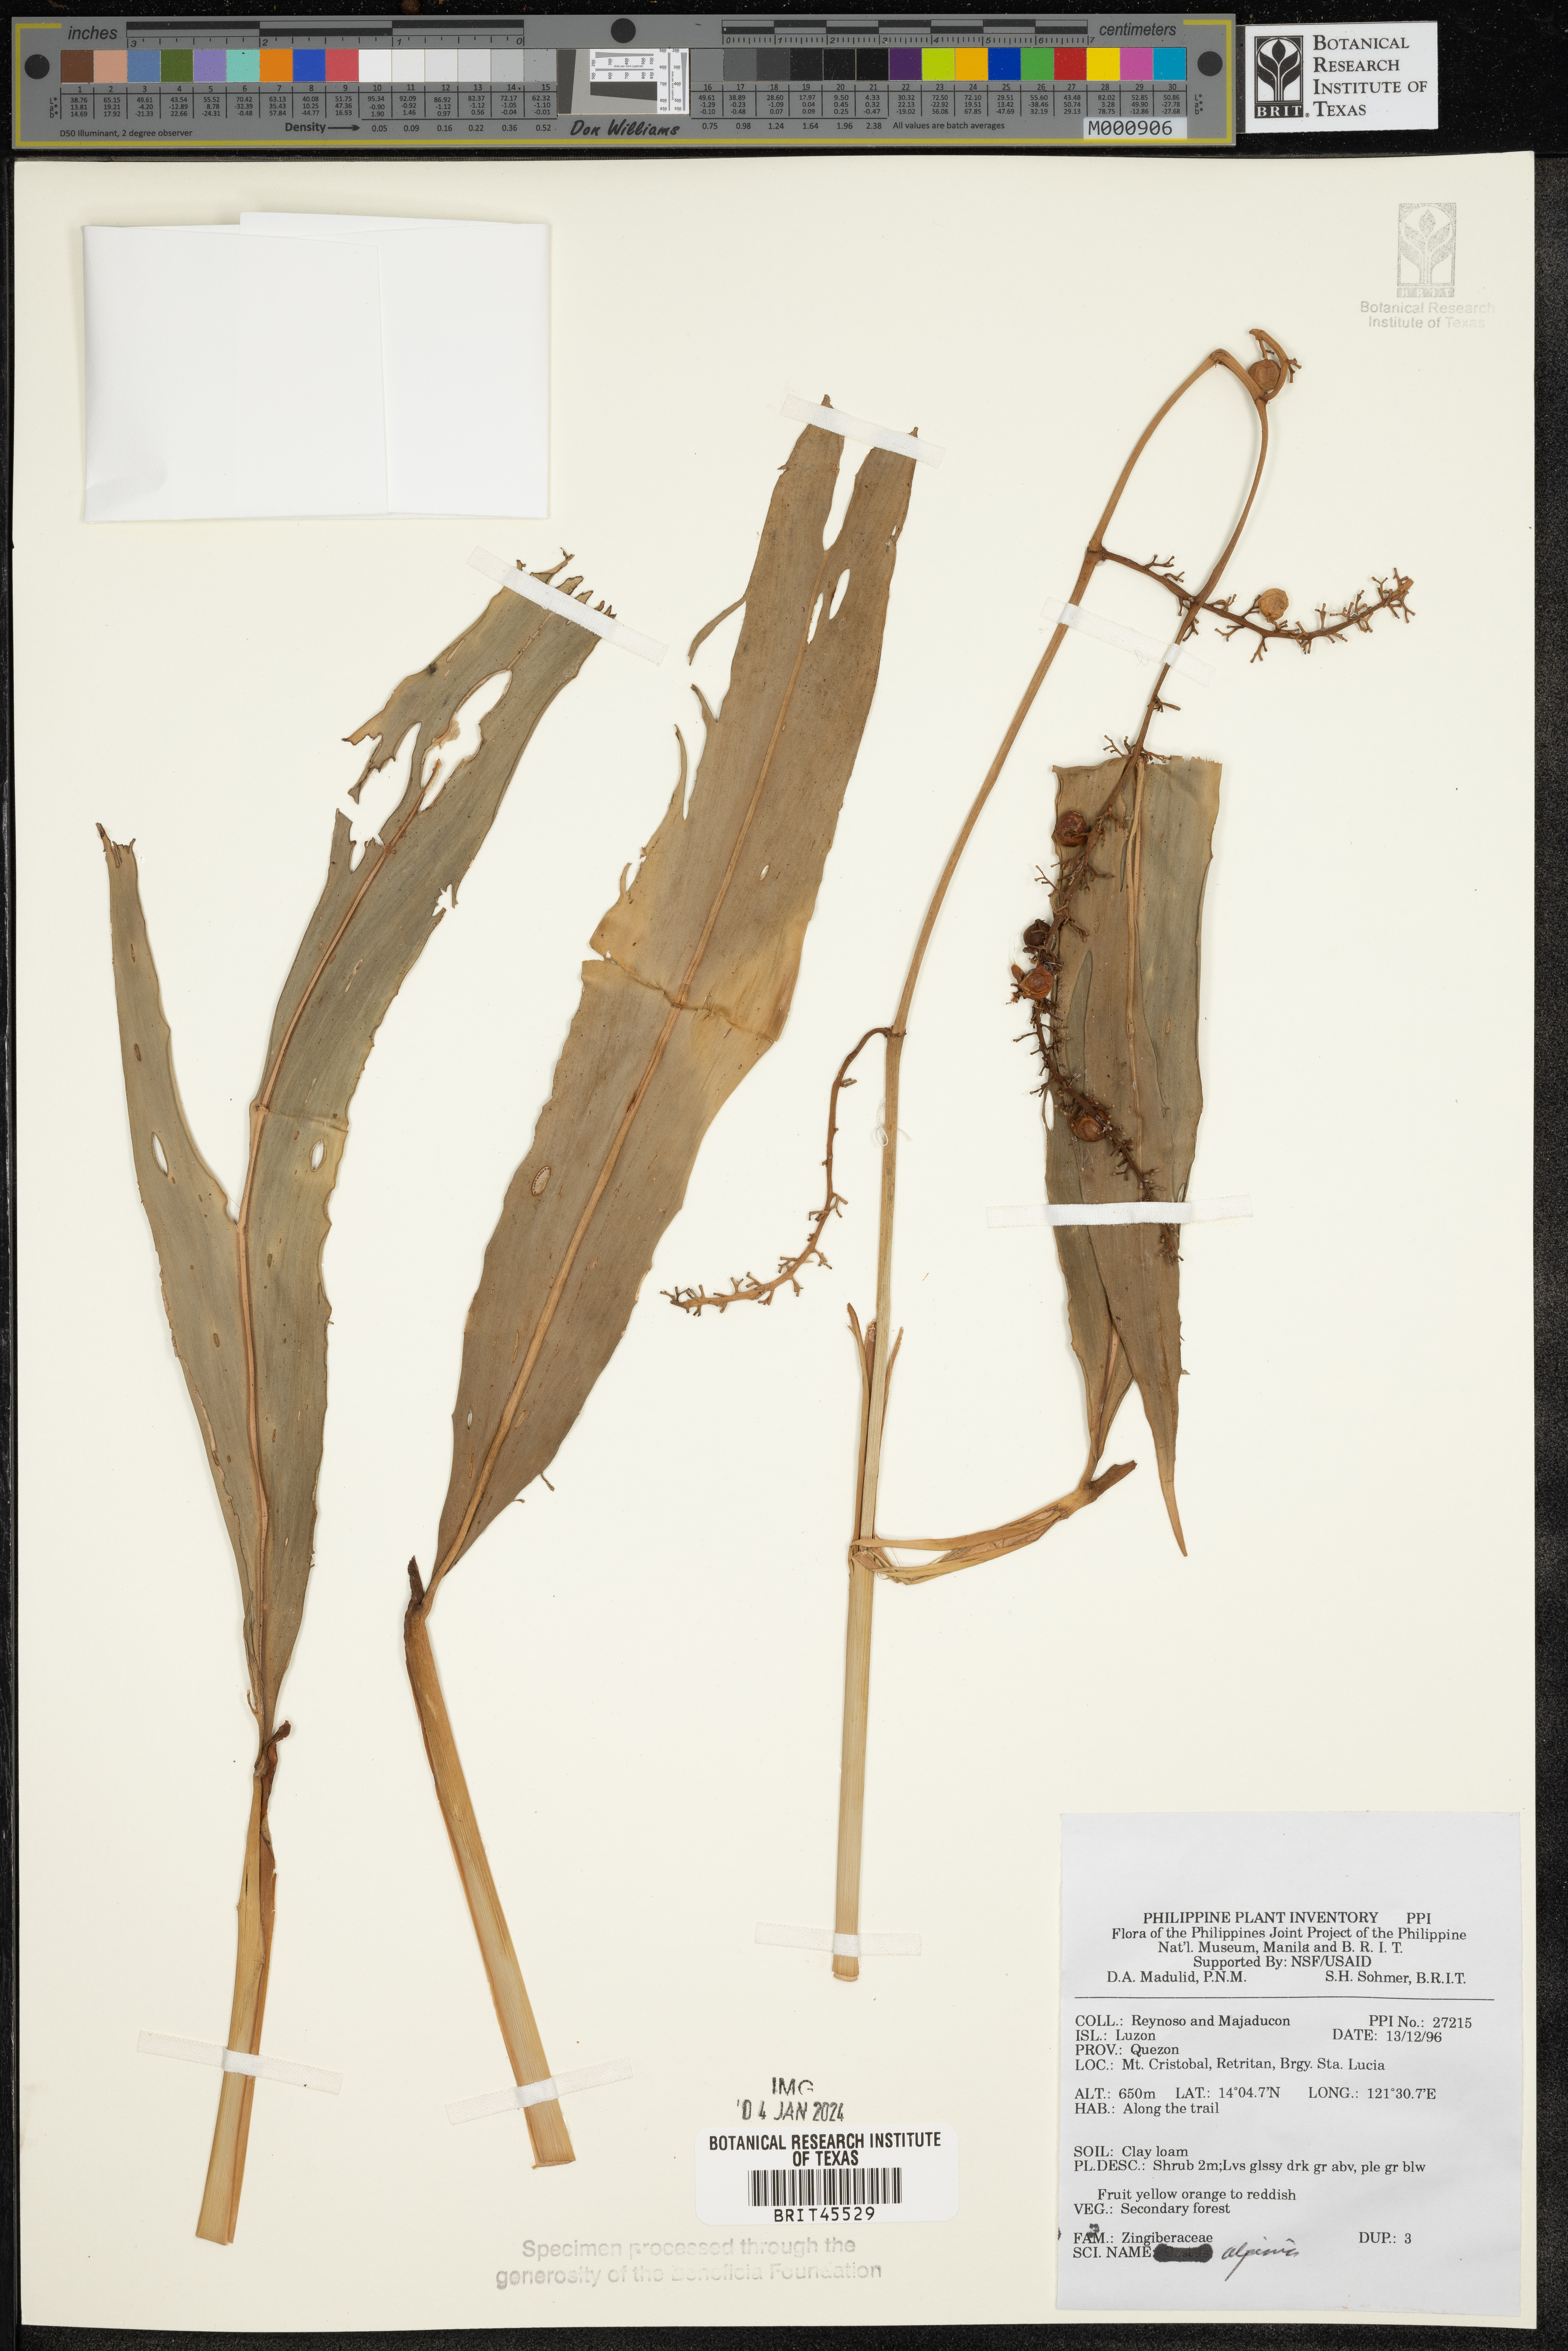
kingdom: Plantae
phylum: Tracheophyta
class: Liliopsida
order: Zingiberales
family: Zingiberaceae
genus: Alpinia
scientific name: Alpinia
